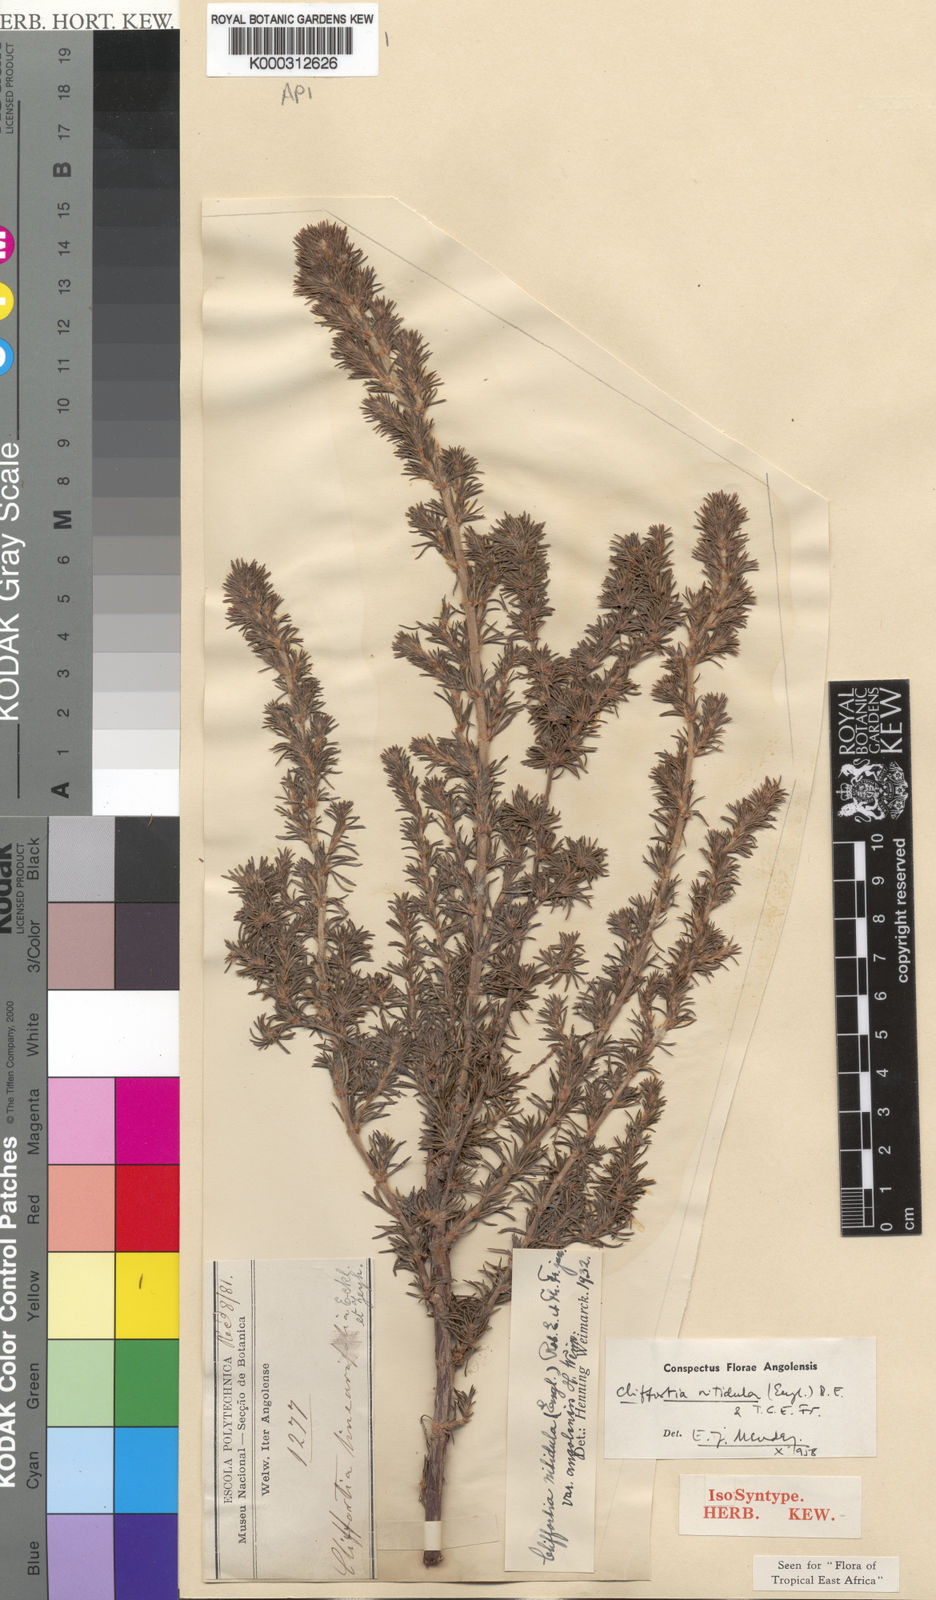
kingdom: Plantae
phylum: Tracheophyta
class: Magnoliopsida
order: Rosales
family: Rosaceae
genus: Cliffortia
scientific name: Cliffortia nitidula
